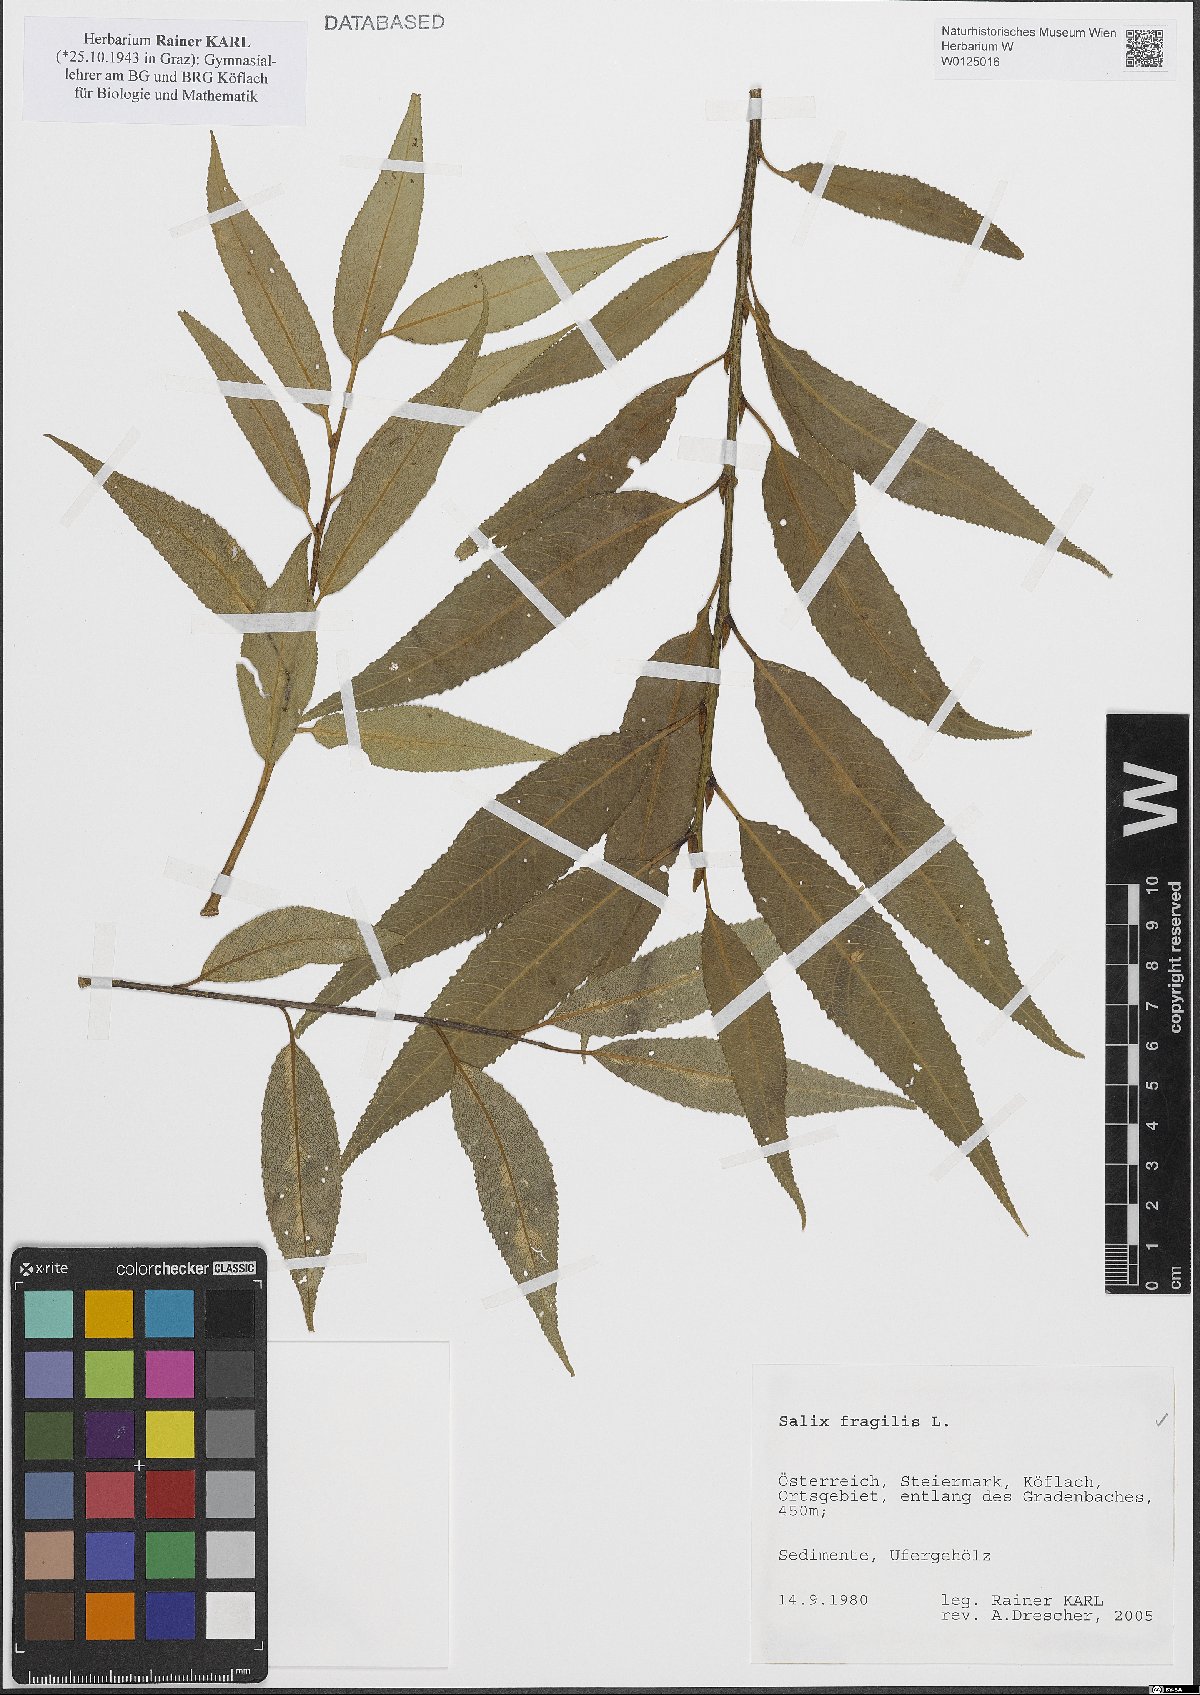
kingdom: Plantae
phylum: Tracheophyta
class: Magnoliopsida
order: Malpighiales
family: Salicaceae
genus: Salix
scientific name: Salix fragilis
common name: Crack willow
